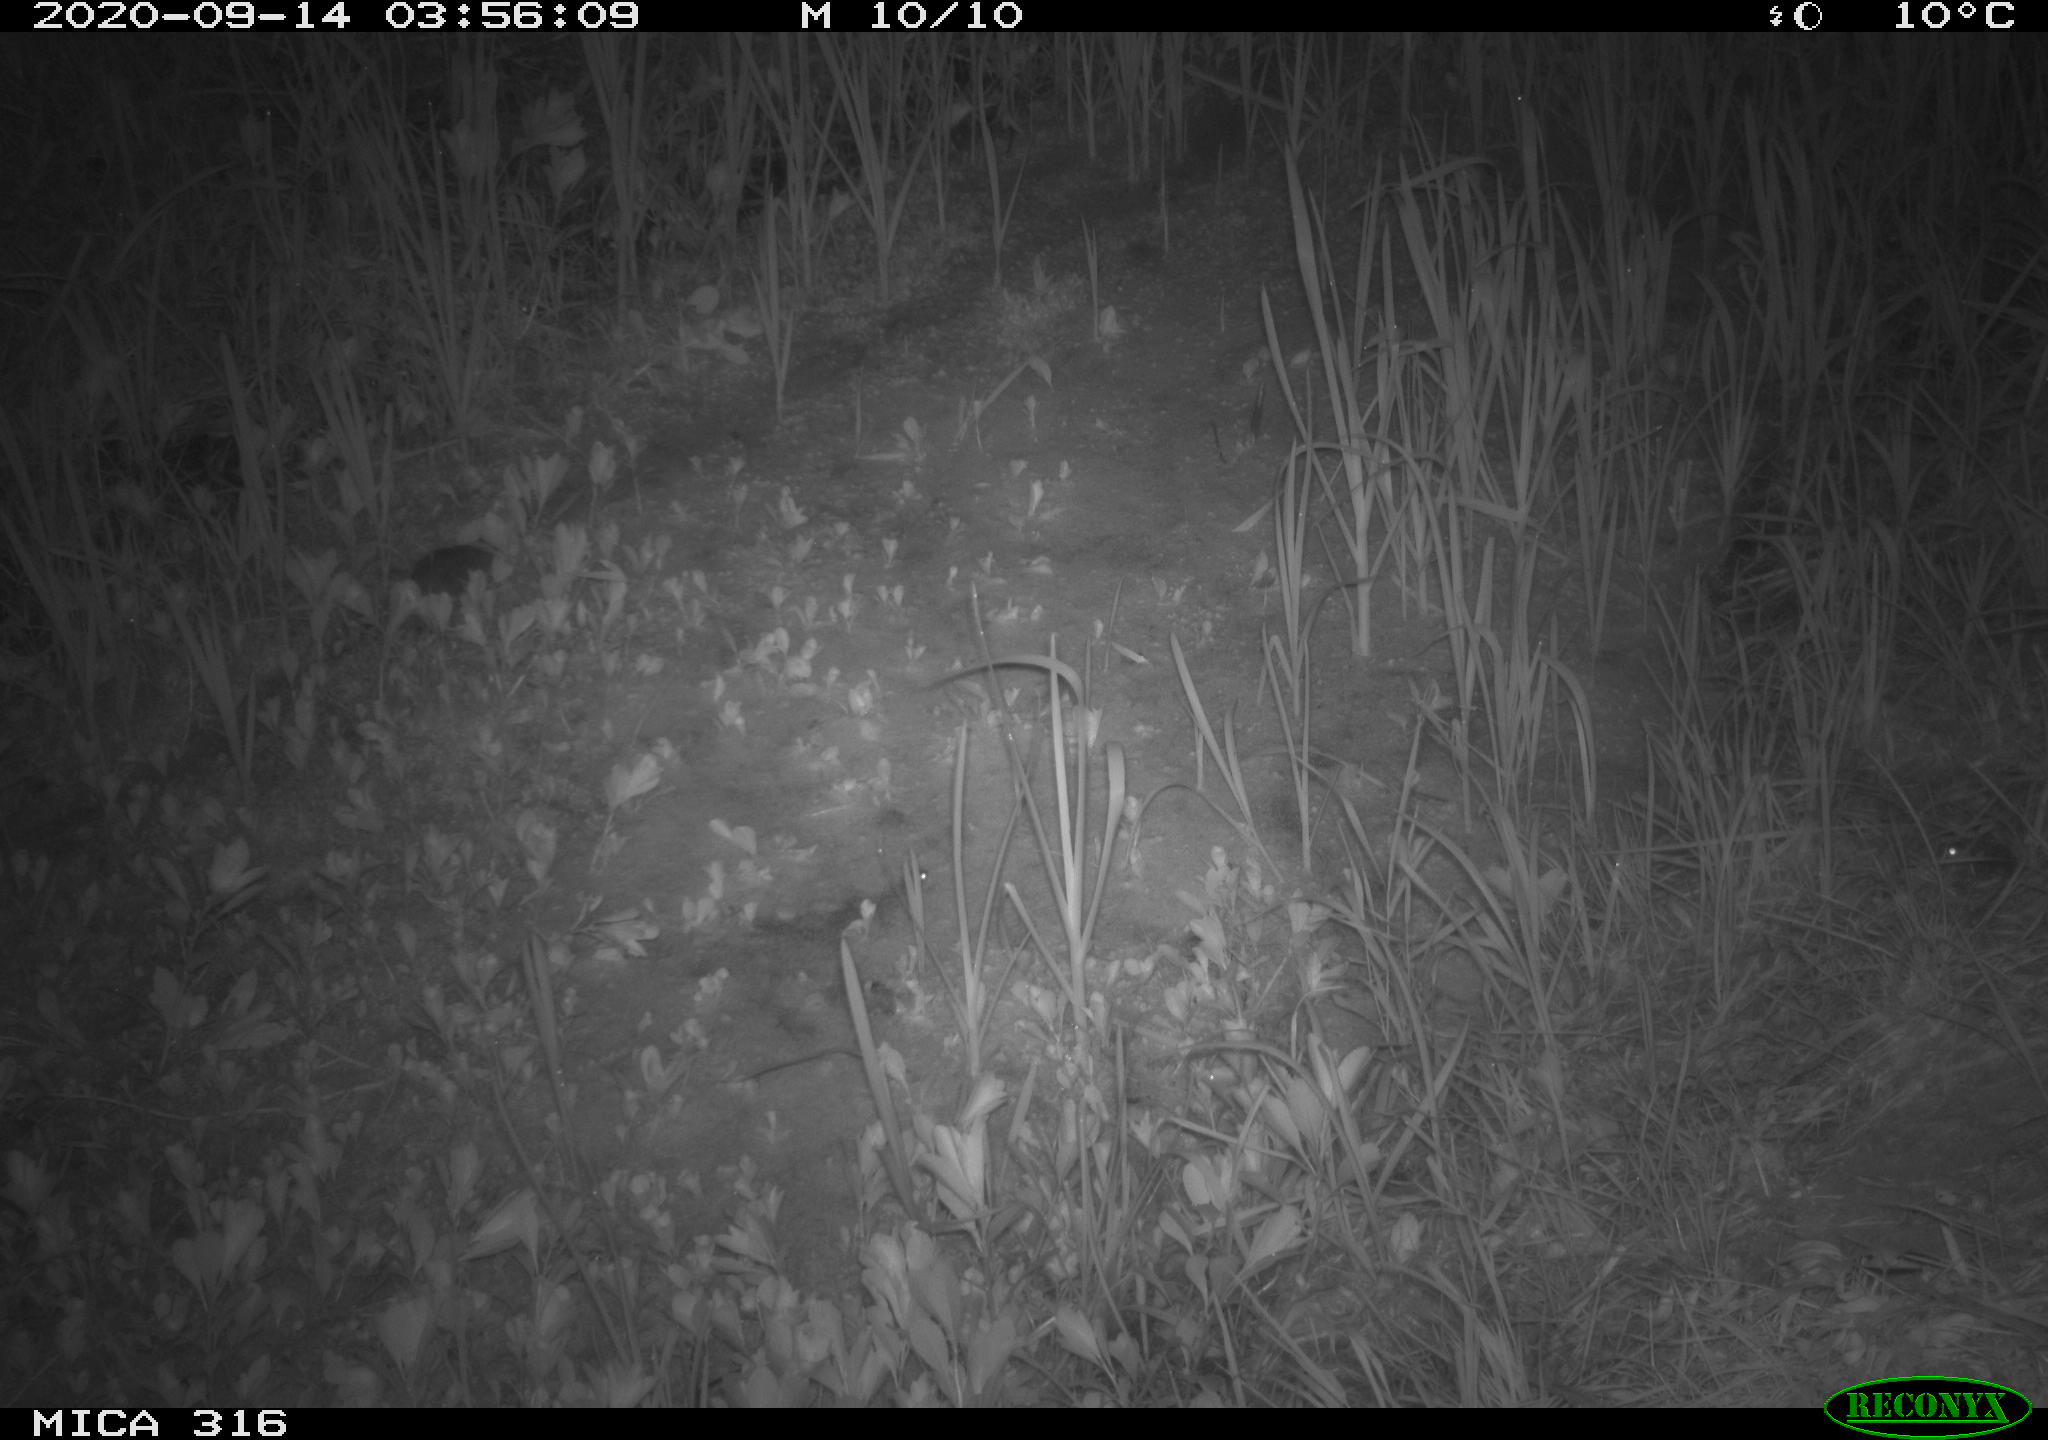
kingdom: Animalia
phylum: Chordata
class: Mammalia
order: Rodentia
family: Muridae
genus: Rattus
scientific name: Rattus norvegicus
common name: Brown rat
